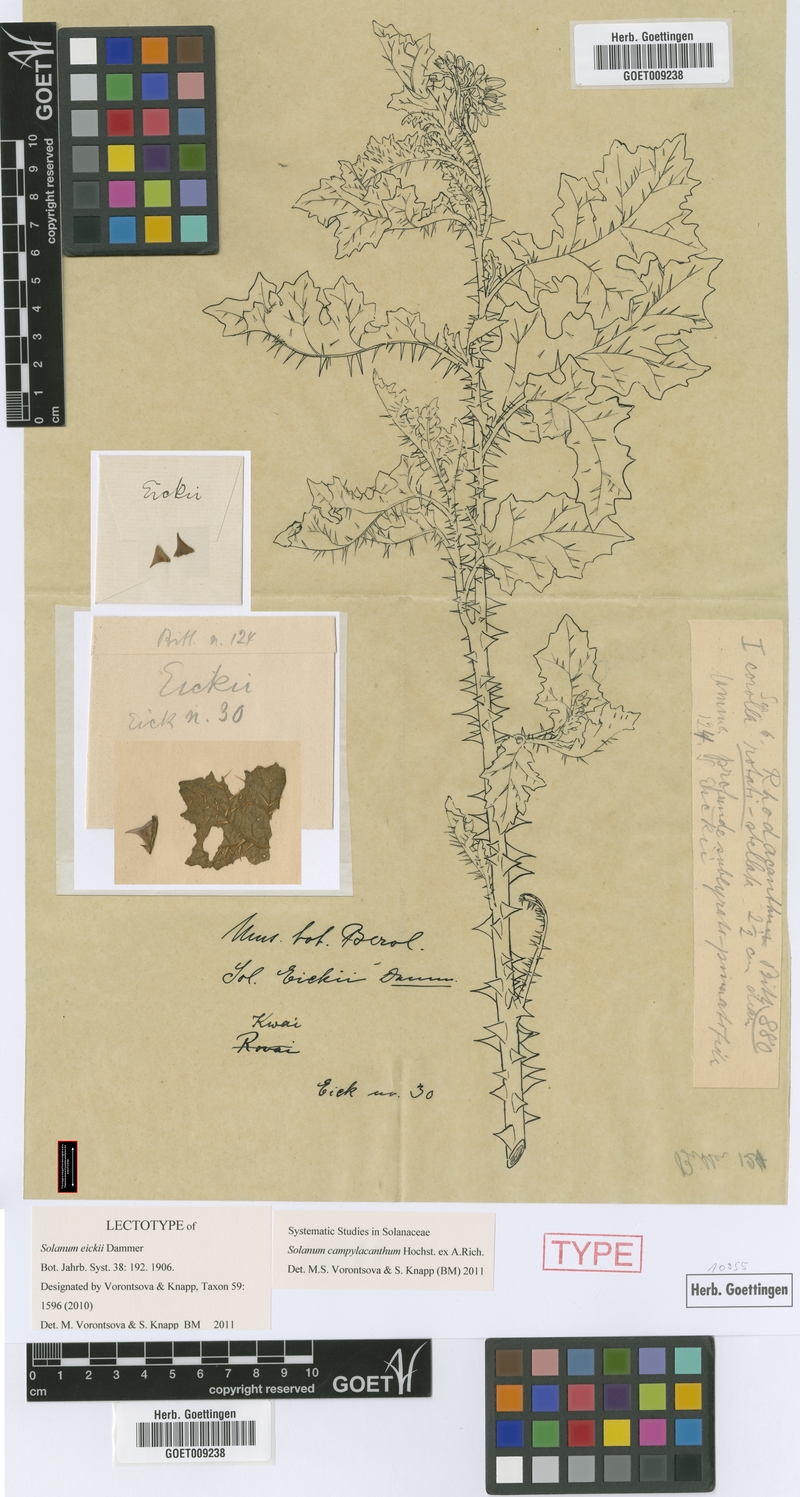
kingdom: Plantae
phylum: Tracheophyta
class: Magnoliopsida
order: Solanales
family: Solanaceae
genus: Solanum
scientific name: Solanum campylacanthum
